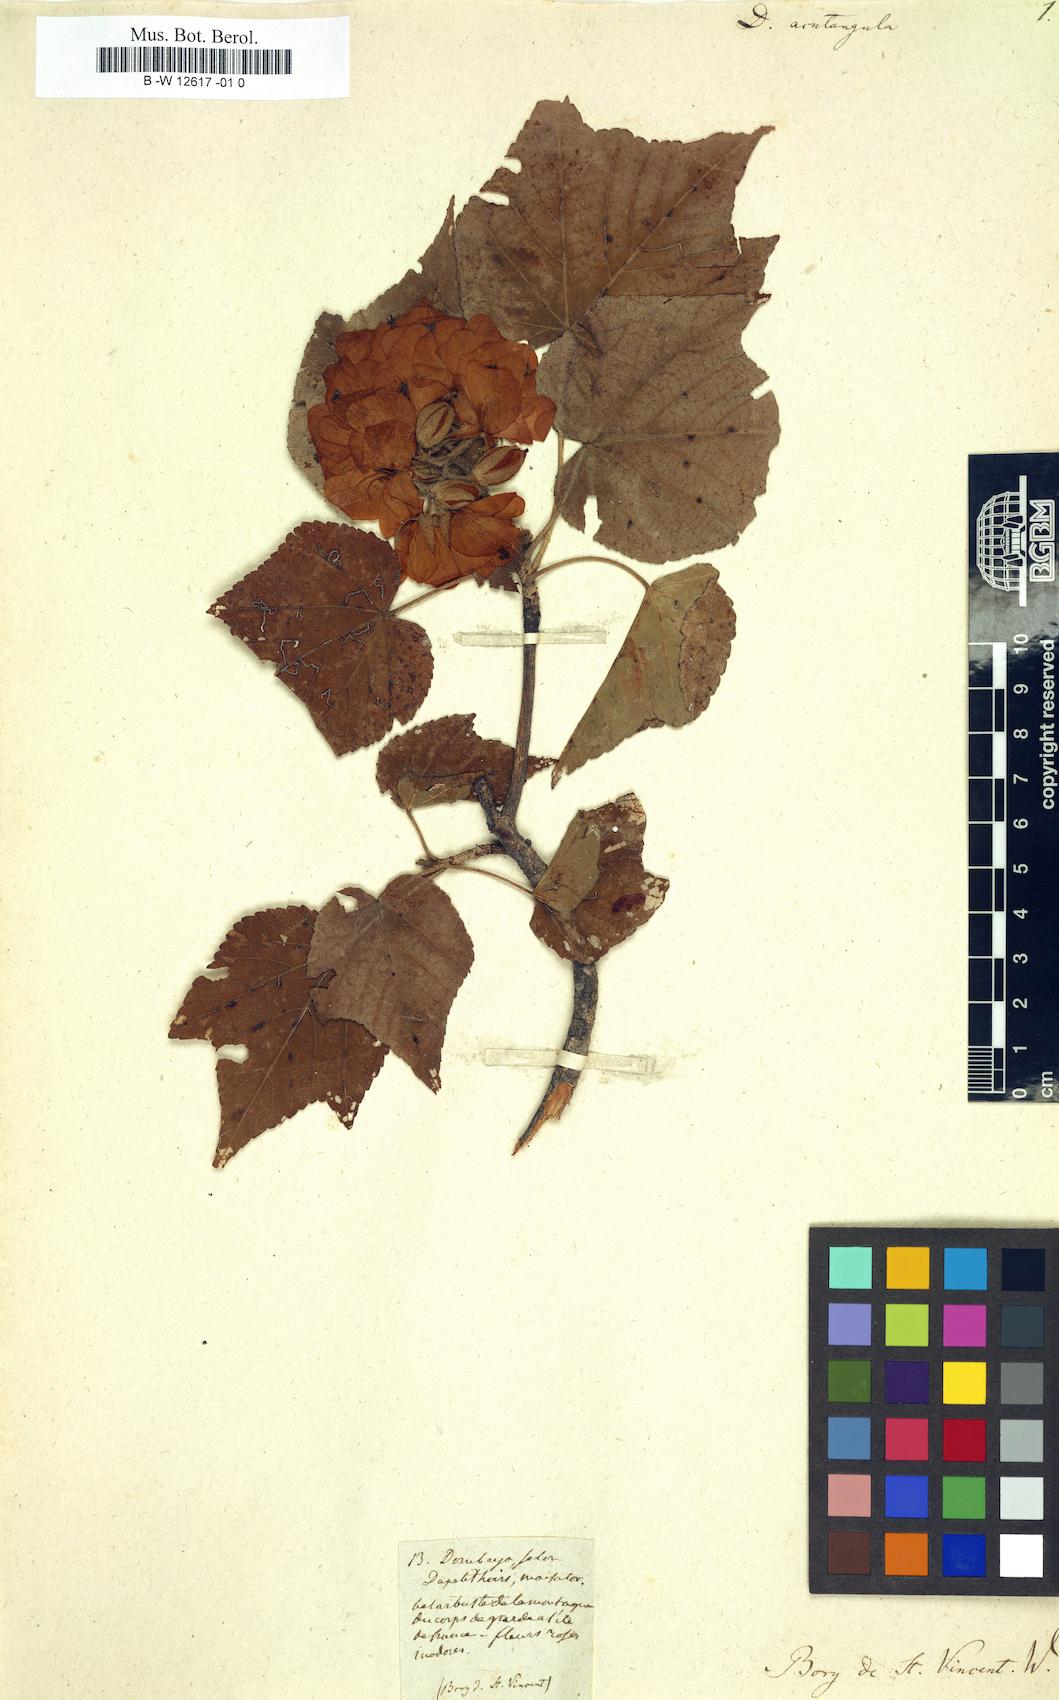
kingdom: Plantae
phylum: Tracheophyta
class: Magnoliopsida
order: Malvales
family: Malvaceae
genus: Dombeya
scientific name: Dombeya acutangula
